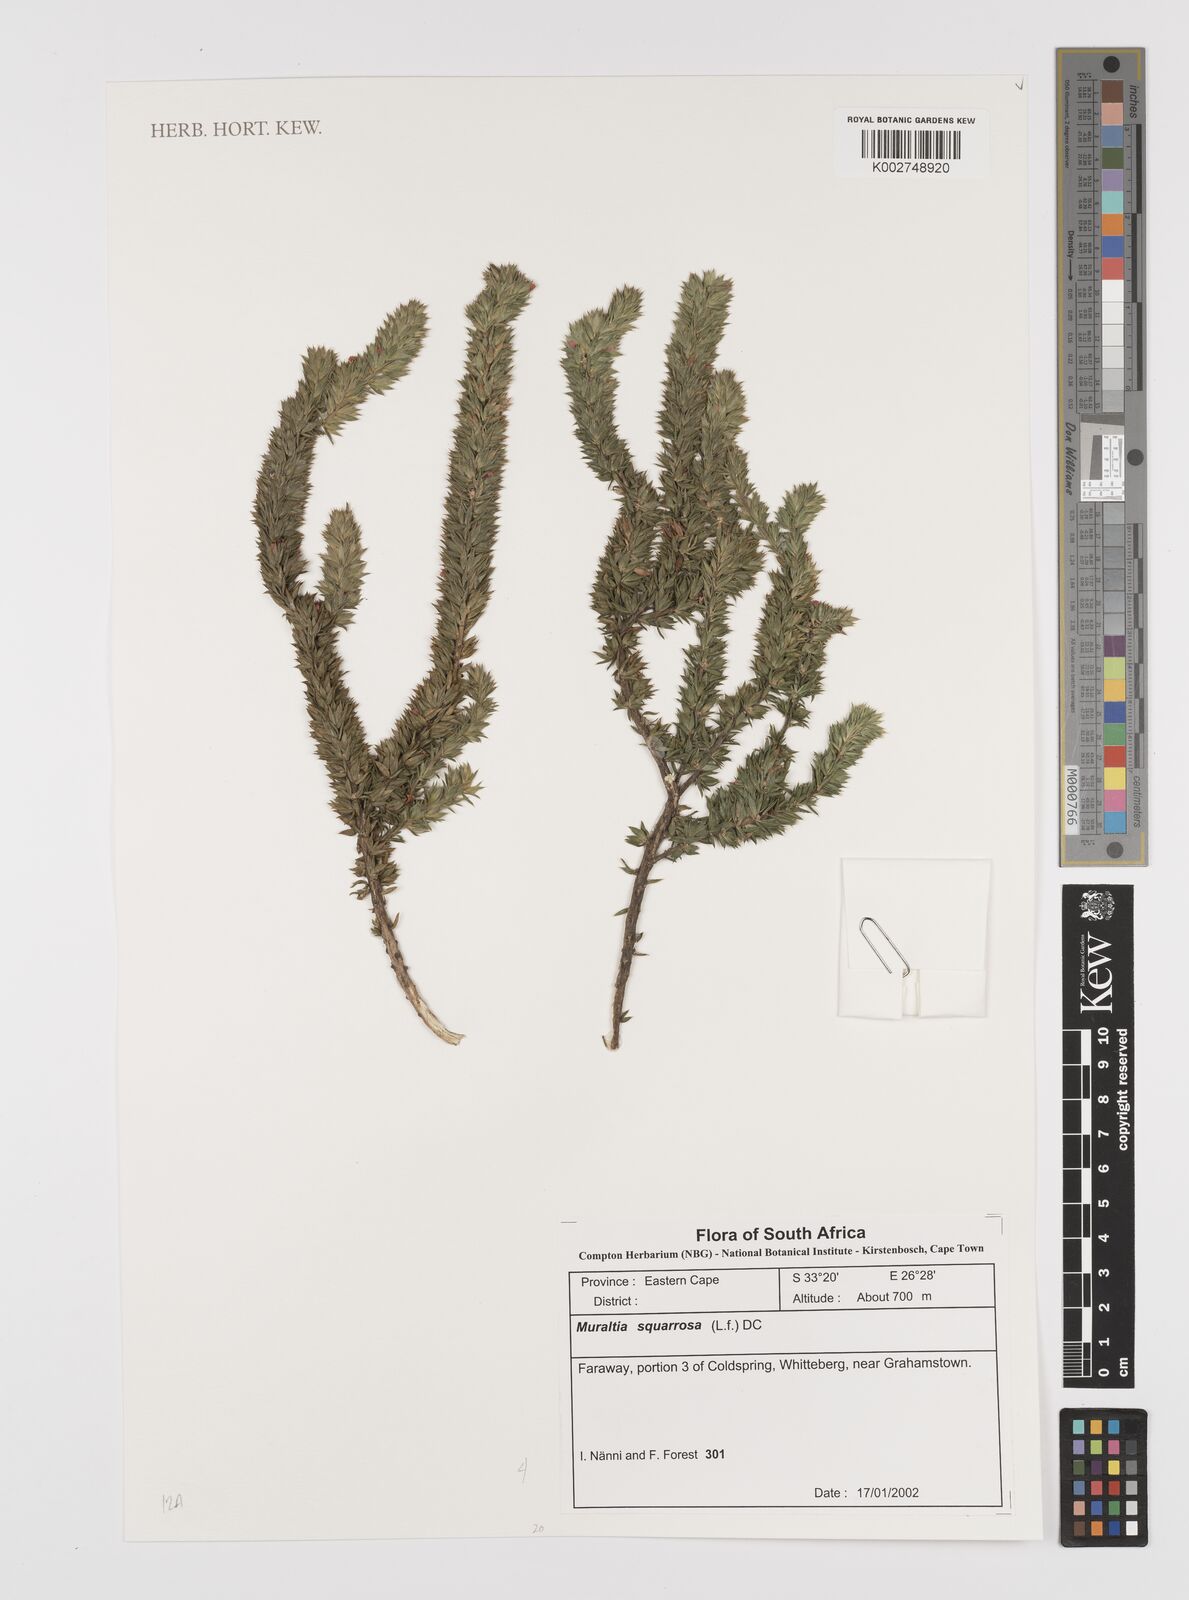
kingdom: Plantae
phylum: Tracheophyta
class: Magnoliopsida
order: Fabales
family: Polygalaceae
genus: Muraltia
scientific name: Muraltia squarrosa
